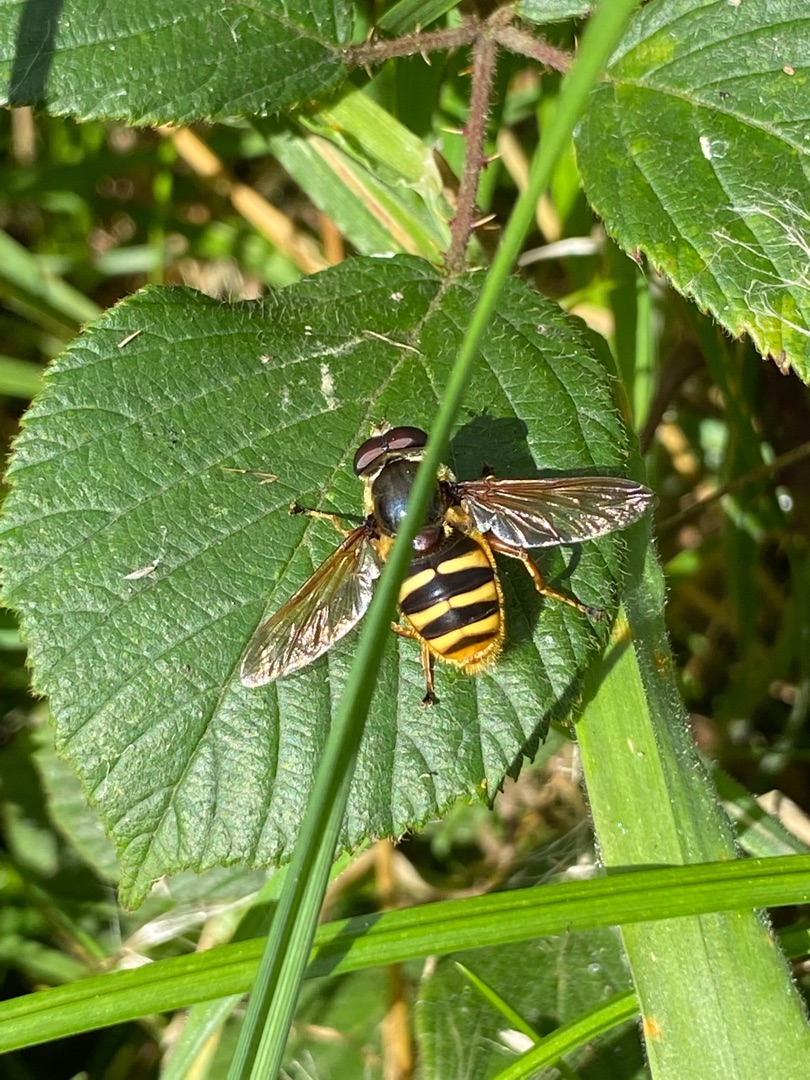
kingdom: Animalia
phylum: Arthropoda
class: Insecta
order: Diptera
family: Syrphidae
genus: Sericomyia
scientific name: Sericomyia silentis
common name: Tørve-silkesvirreflue
